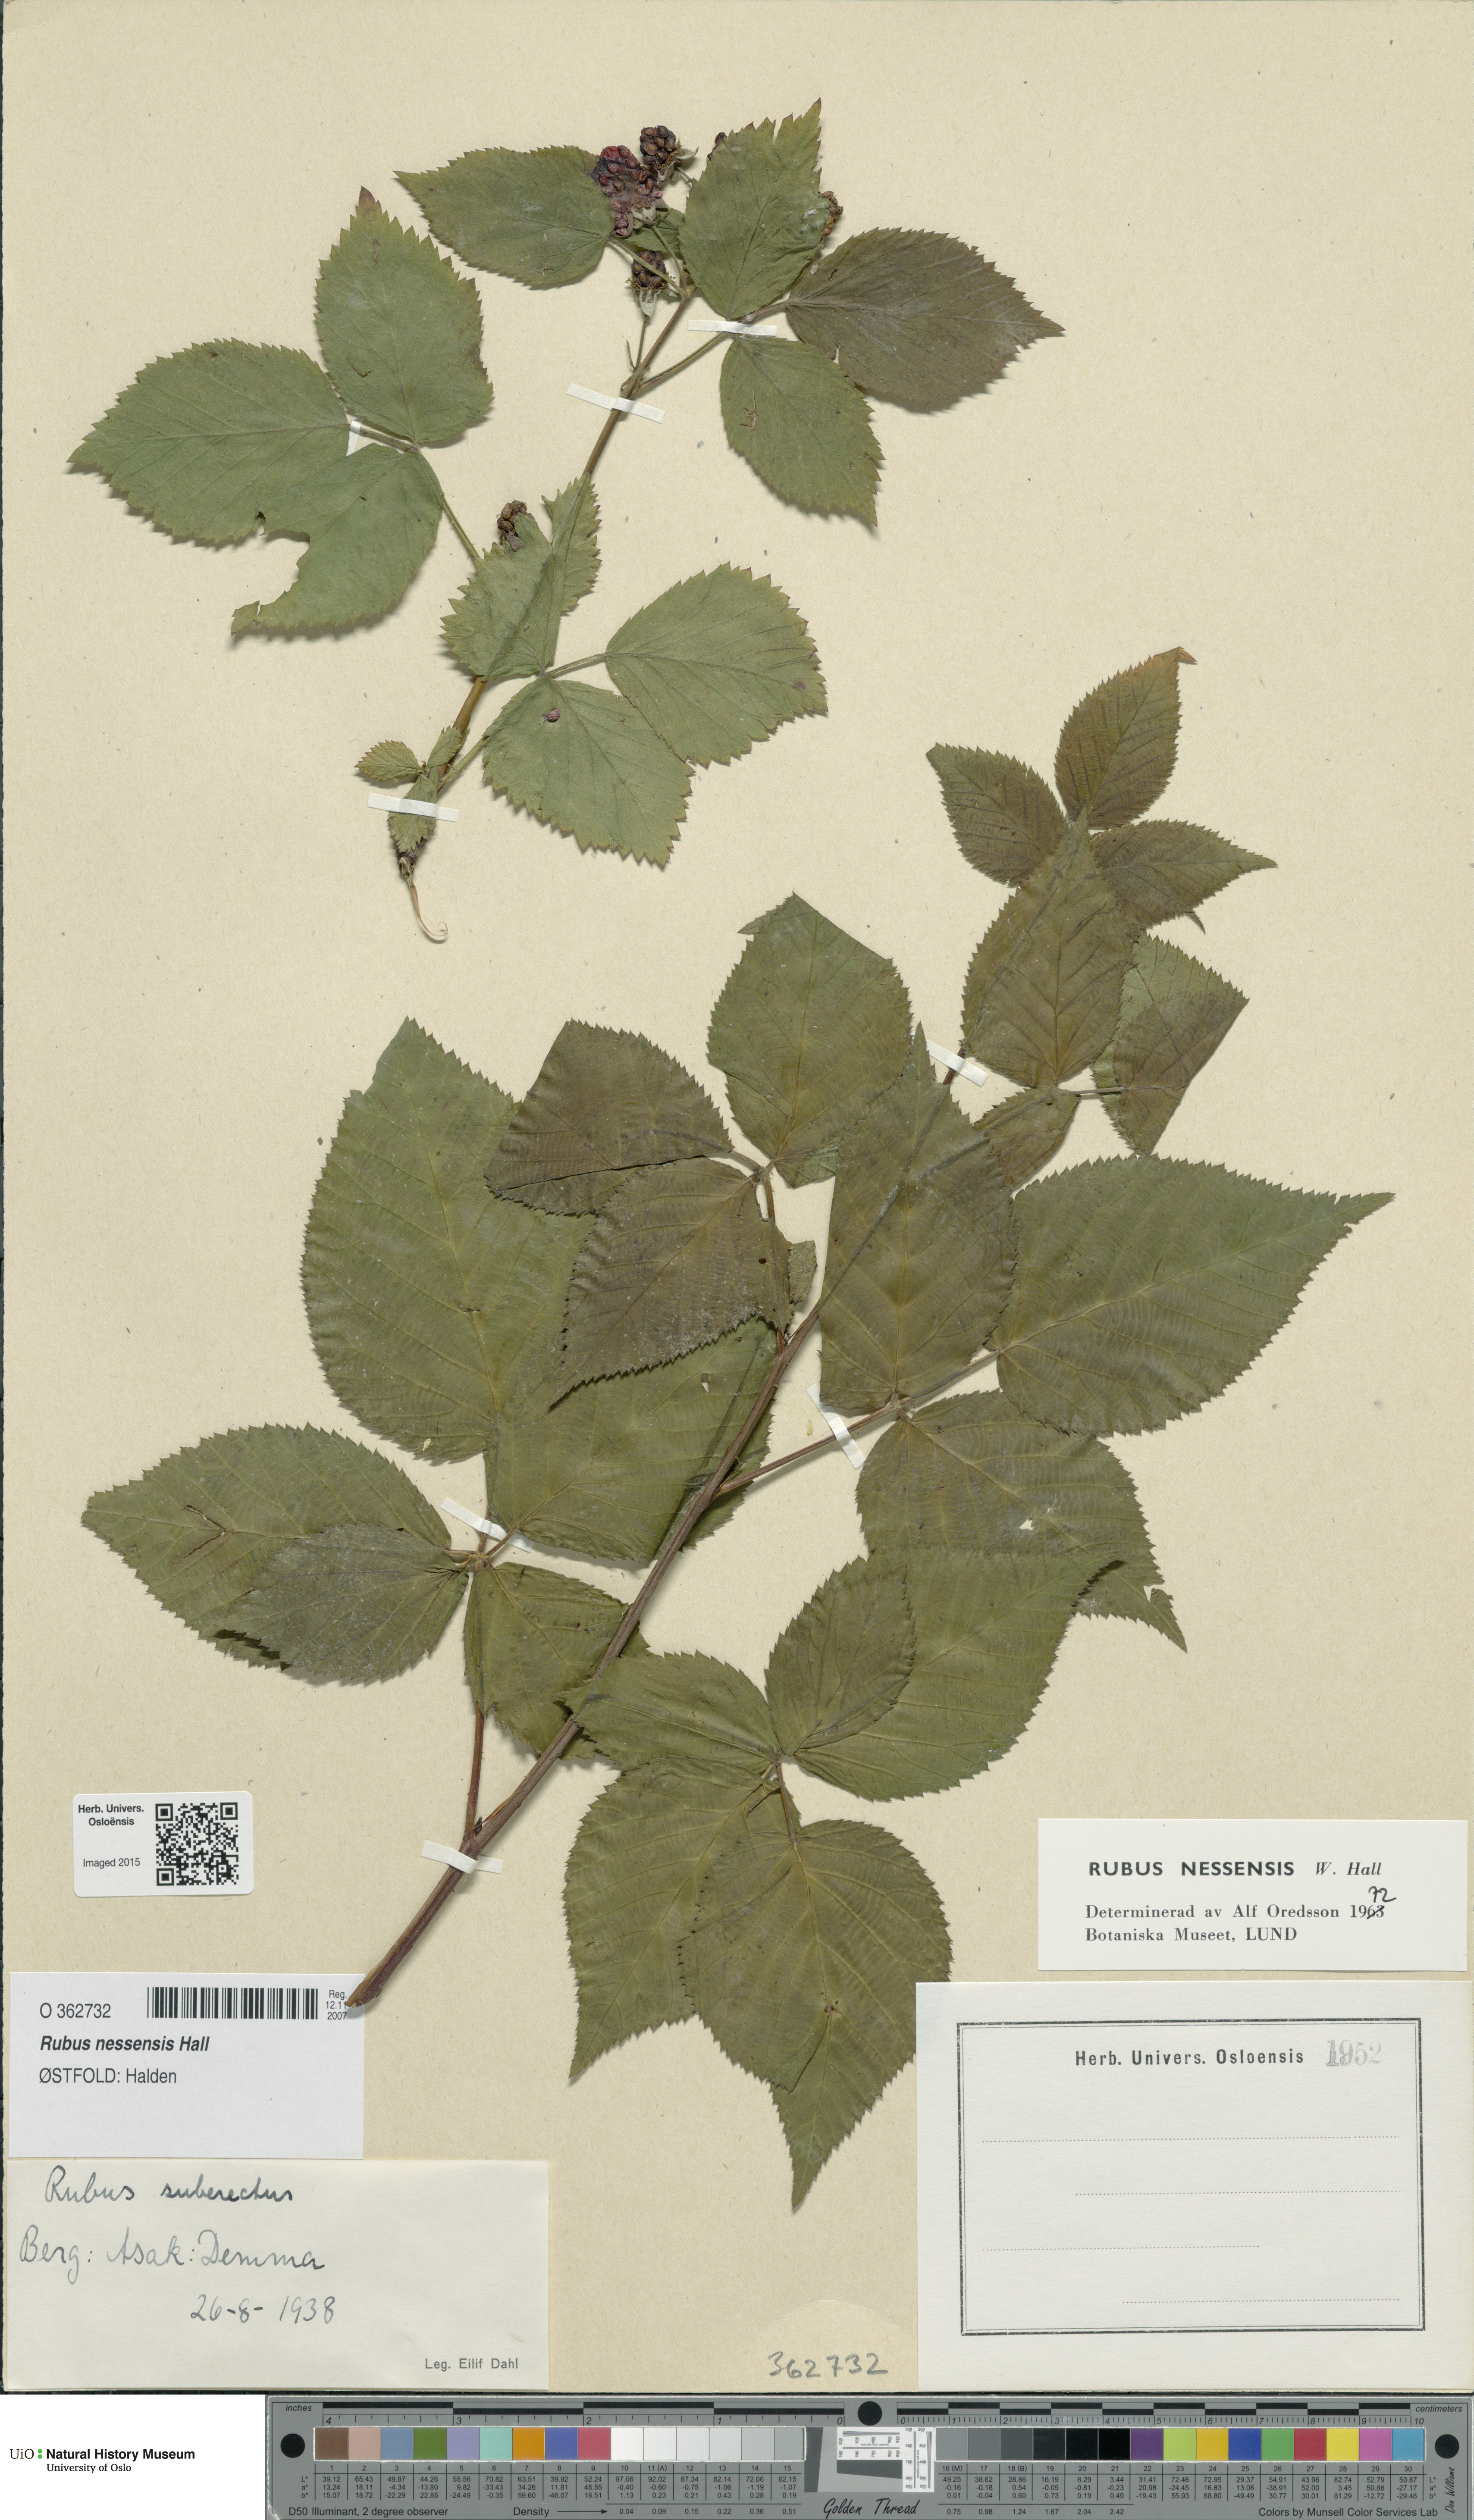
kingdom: Plantae
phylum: Tracheophyta
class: Magnoliopsida
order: Rosales
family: Rosaceae
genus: Rubus
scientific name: Rubus polonicus
